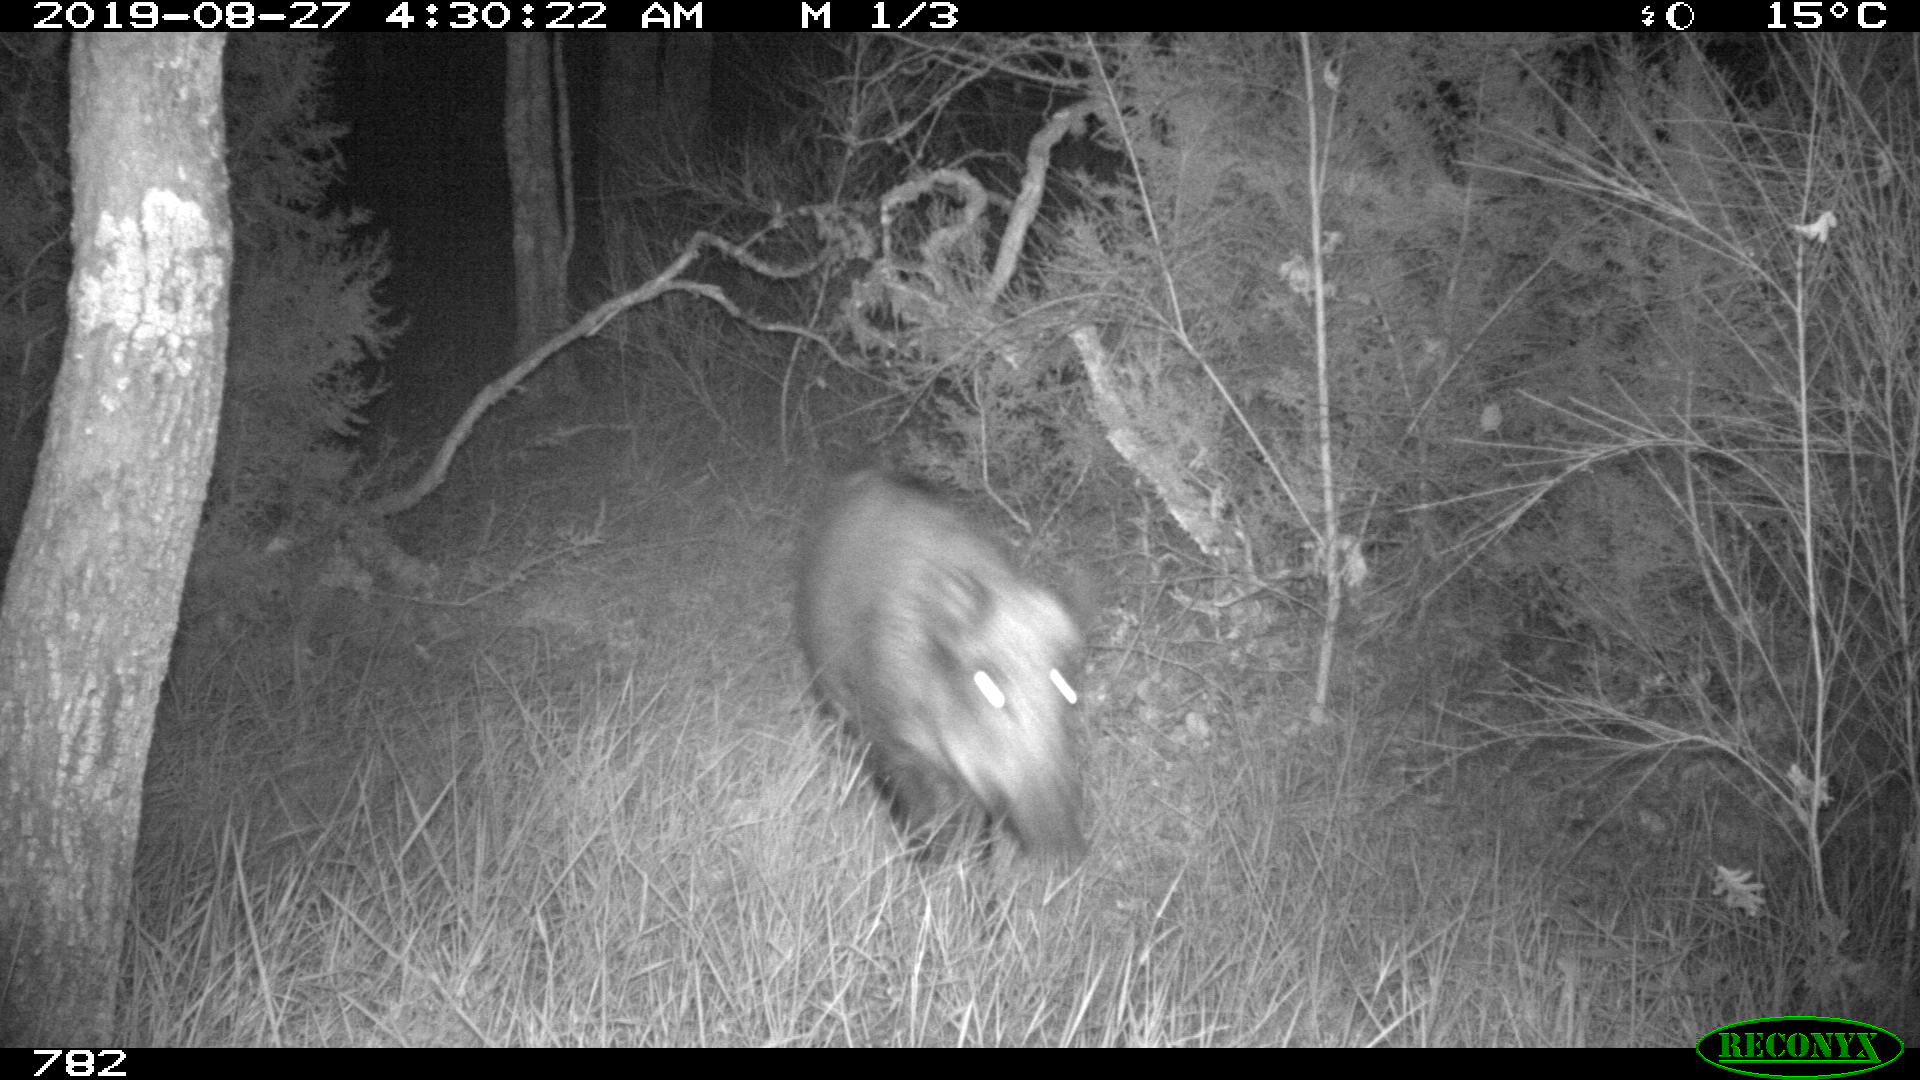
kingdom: Animalia
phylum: Chordata
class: Mammalia
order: Artiodactyla
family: Suidae
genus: Sus
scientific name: Sus scrofa
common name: Wild boar
